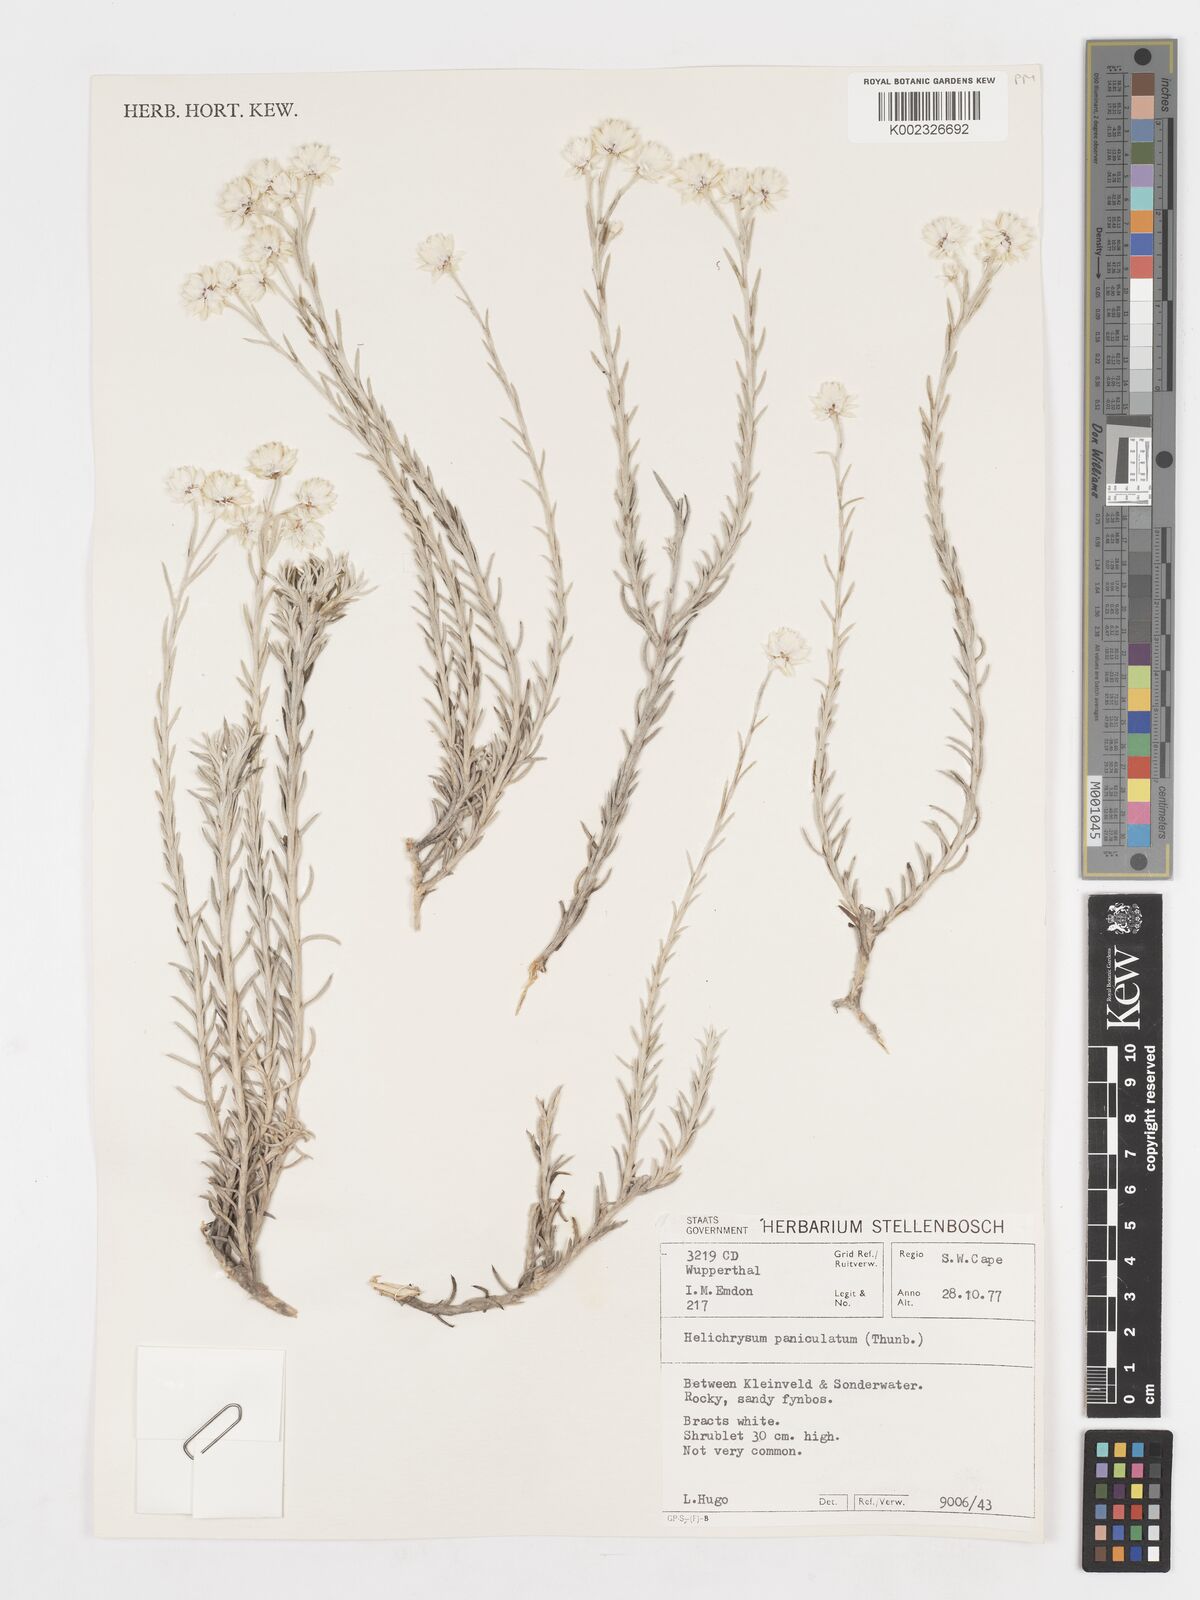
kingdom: Plantae
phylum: Tracheophyta
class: Magnoliopsida
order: Asterales
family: Asteraceae
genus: Achyranthemum
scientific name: Achyranthemum paniculatum
